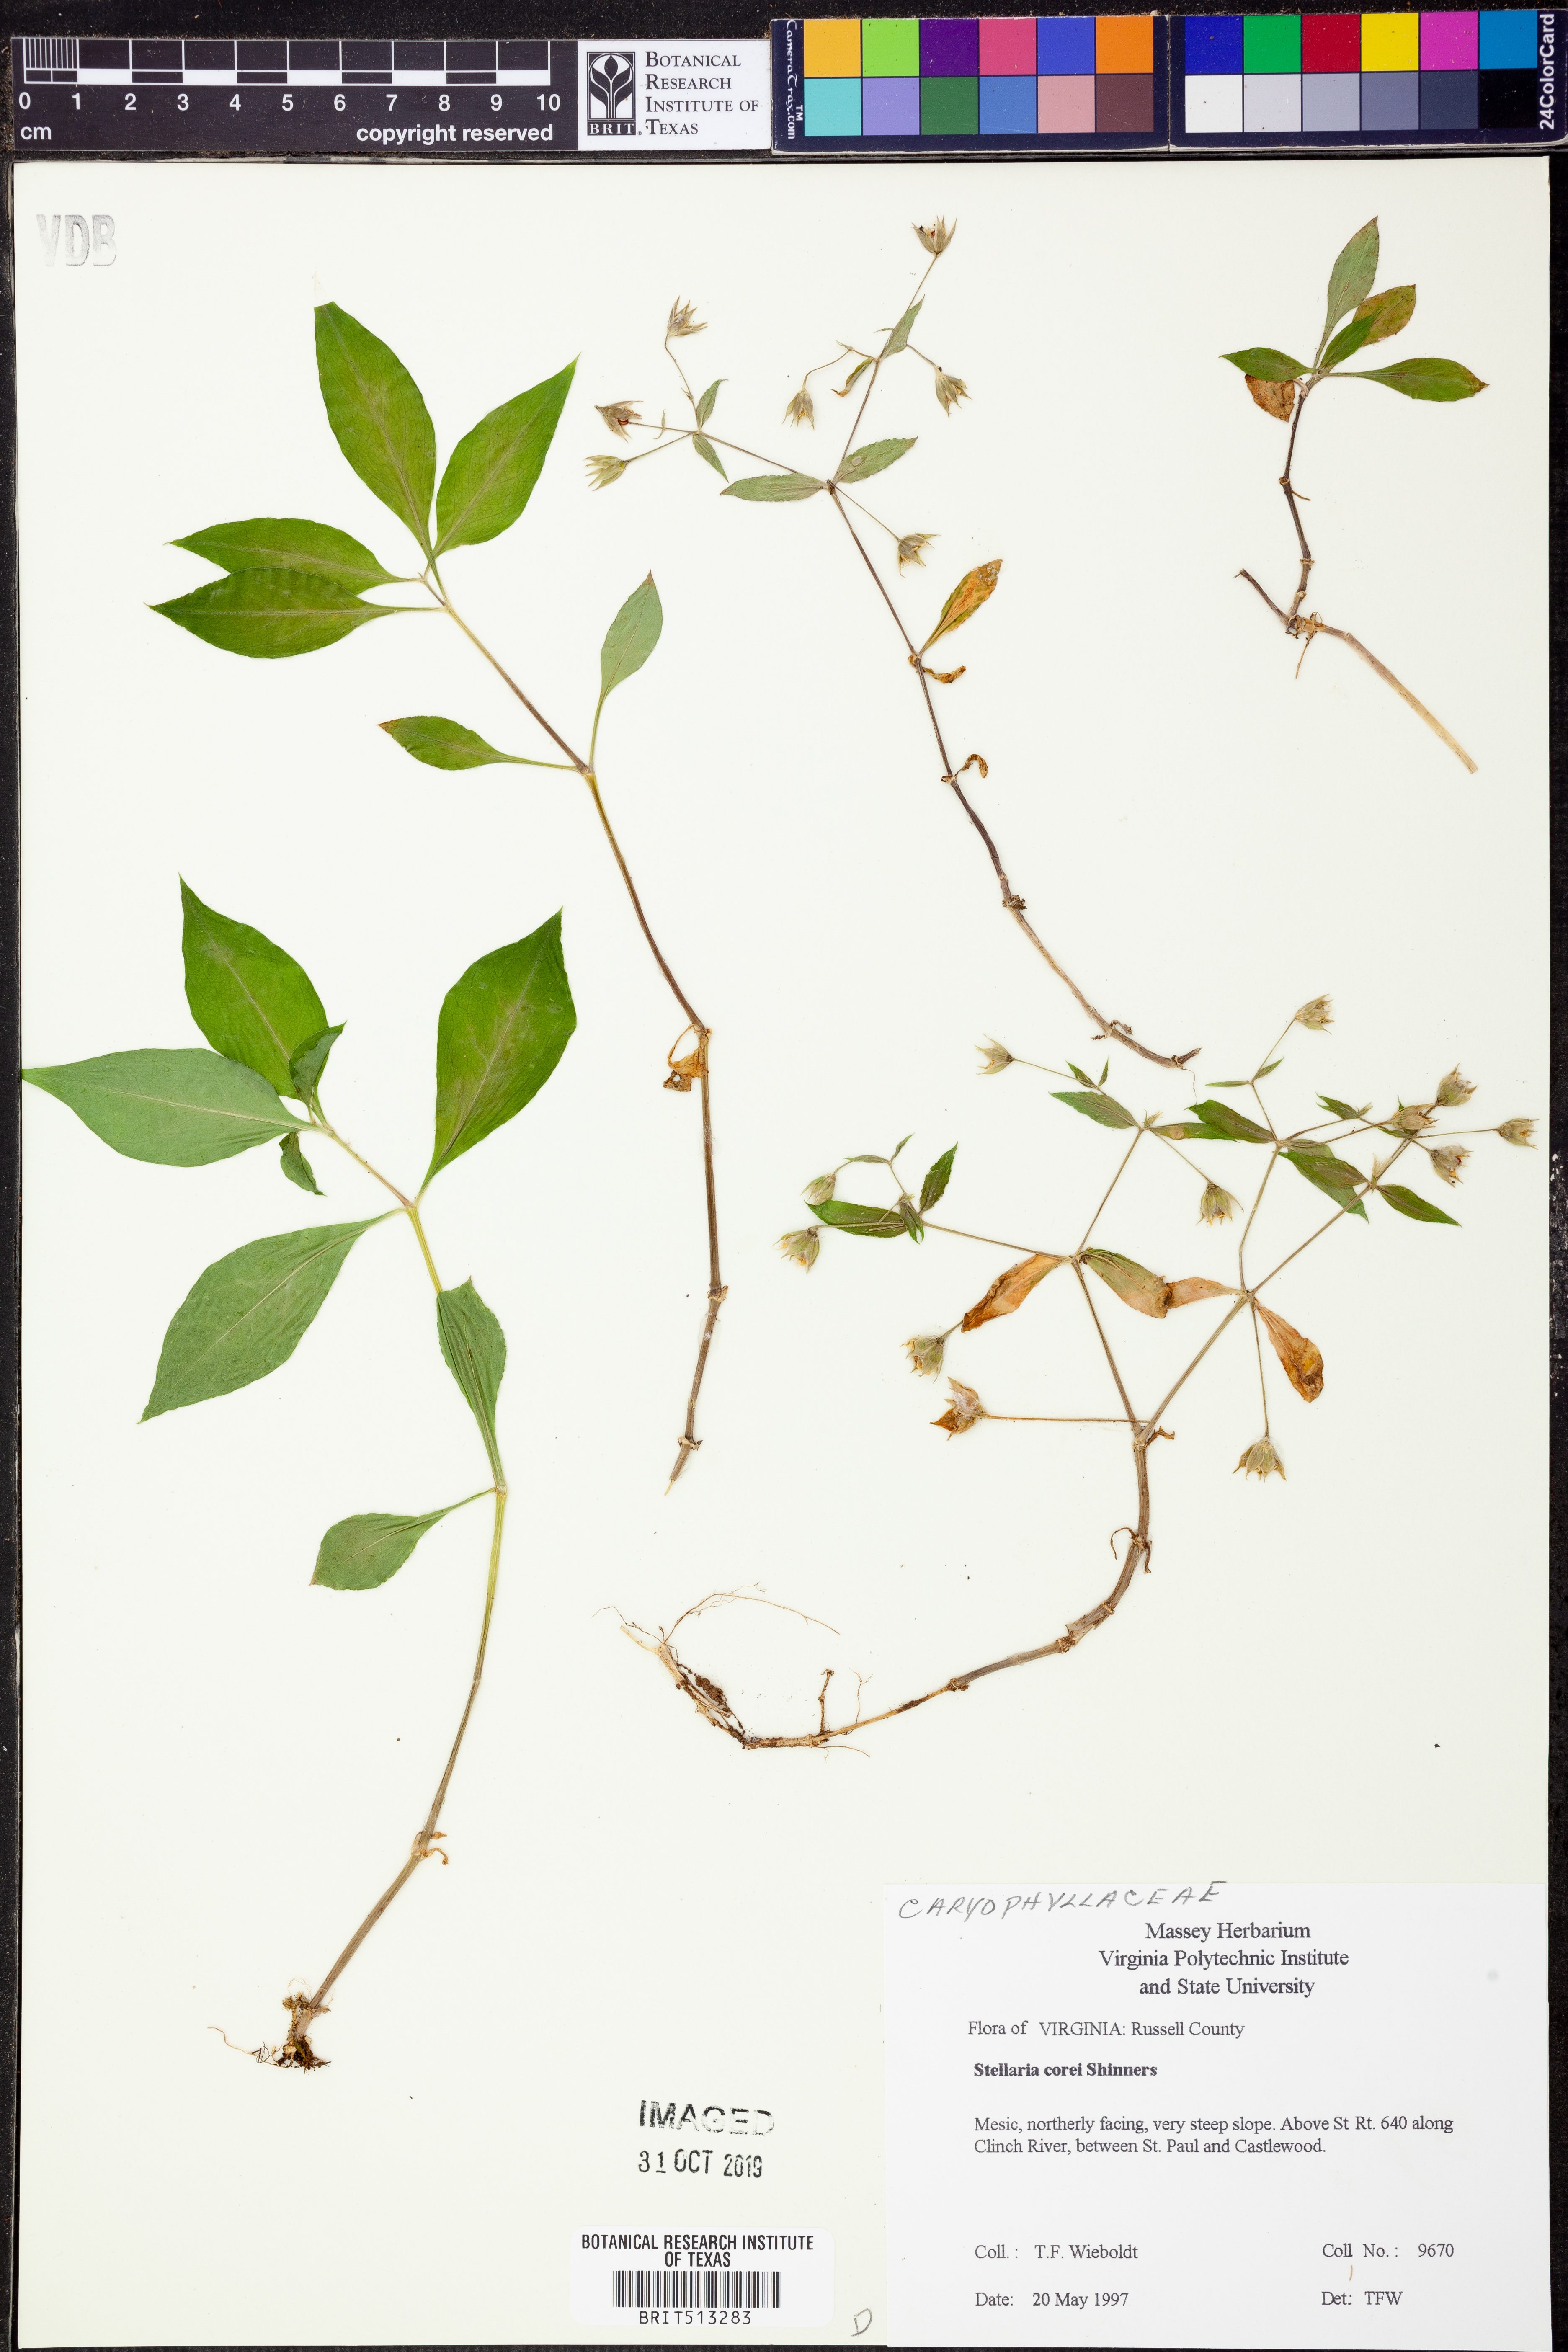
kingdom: Plantae
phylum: Tracheophyta
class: Magnoliopsida
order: Caryophyllales
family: Caryophyllaceae
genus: Stellaria
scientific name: Stellaria corei
